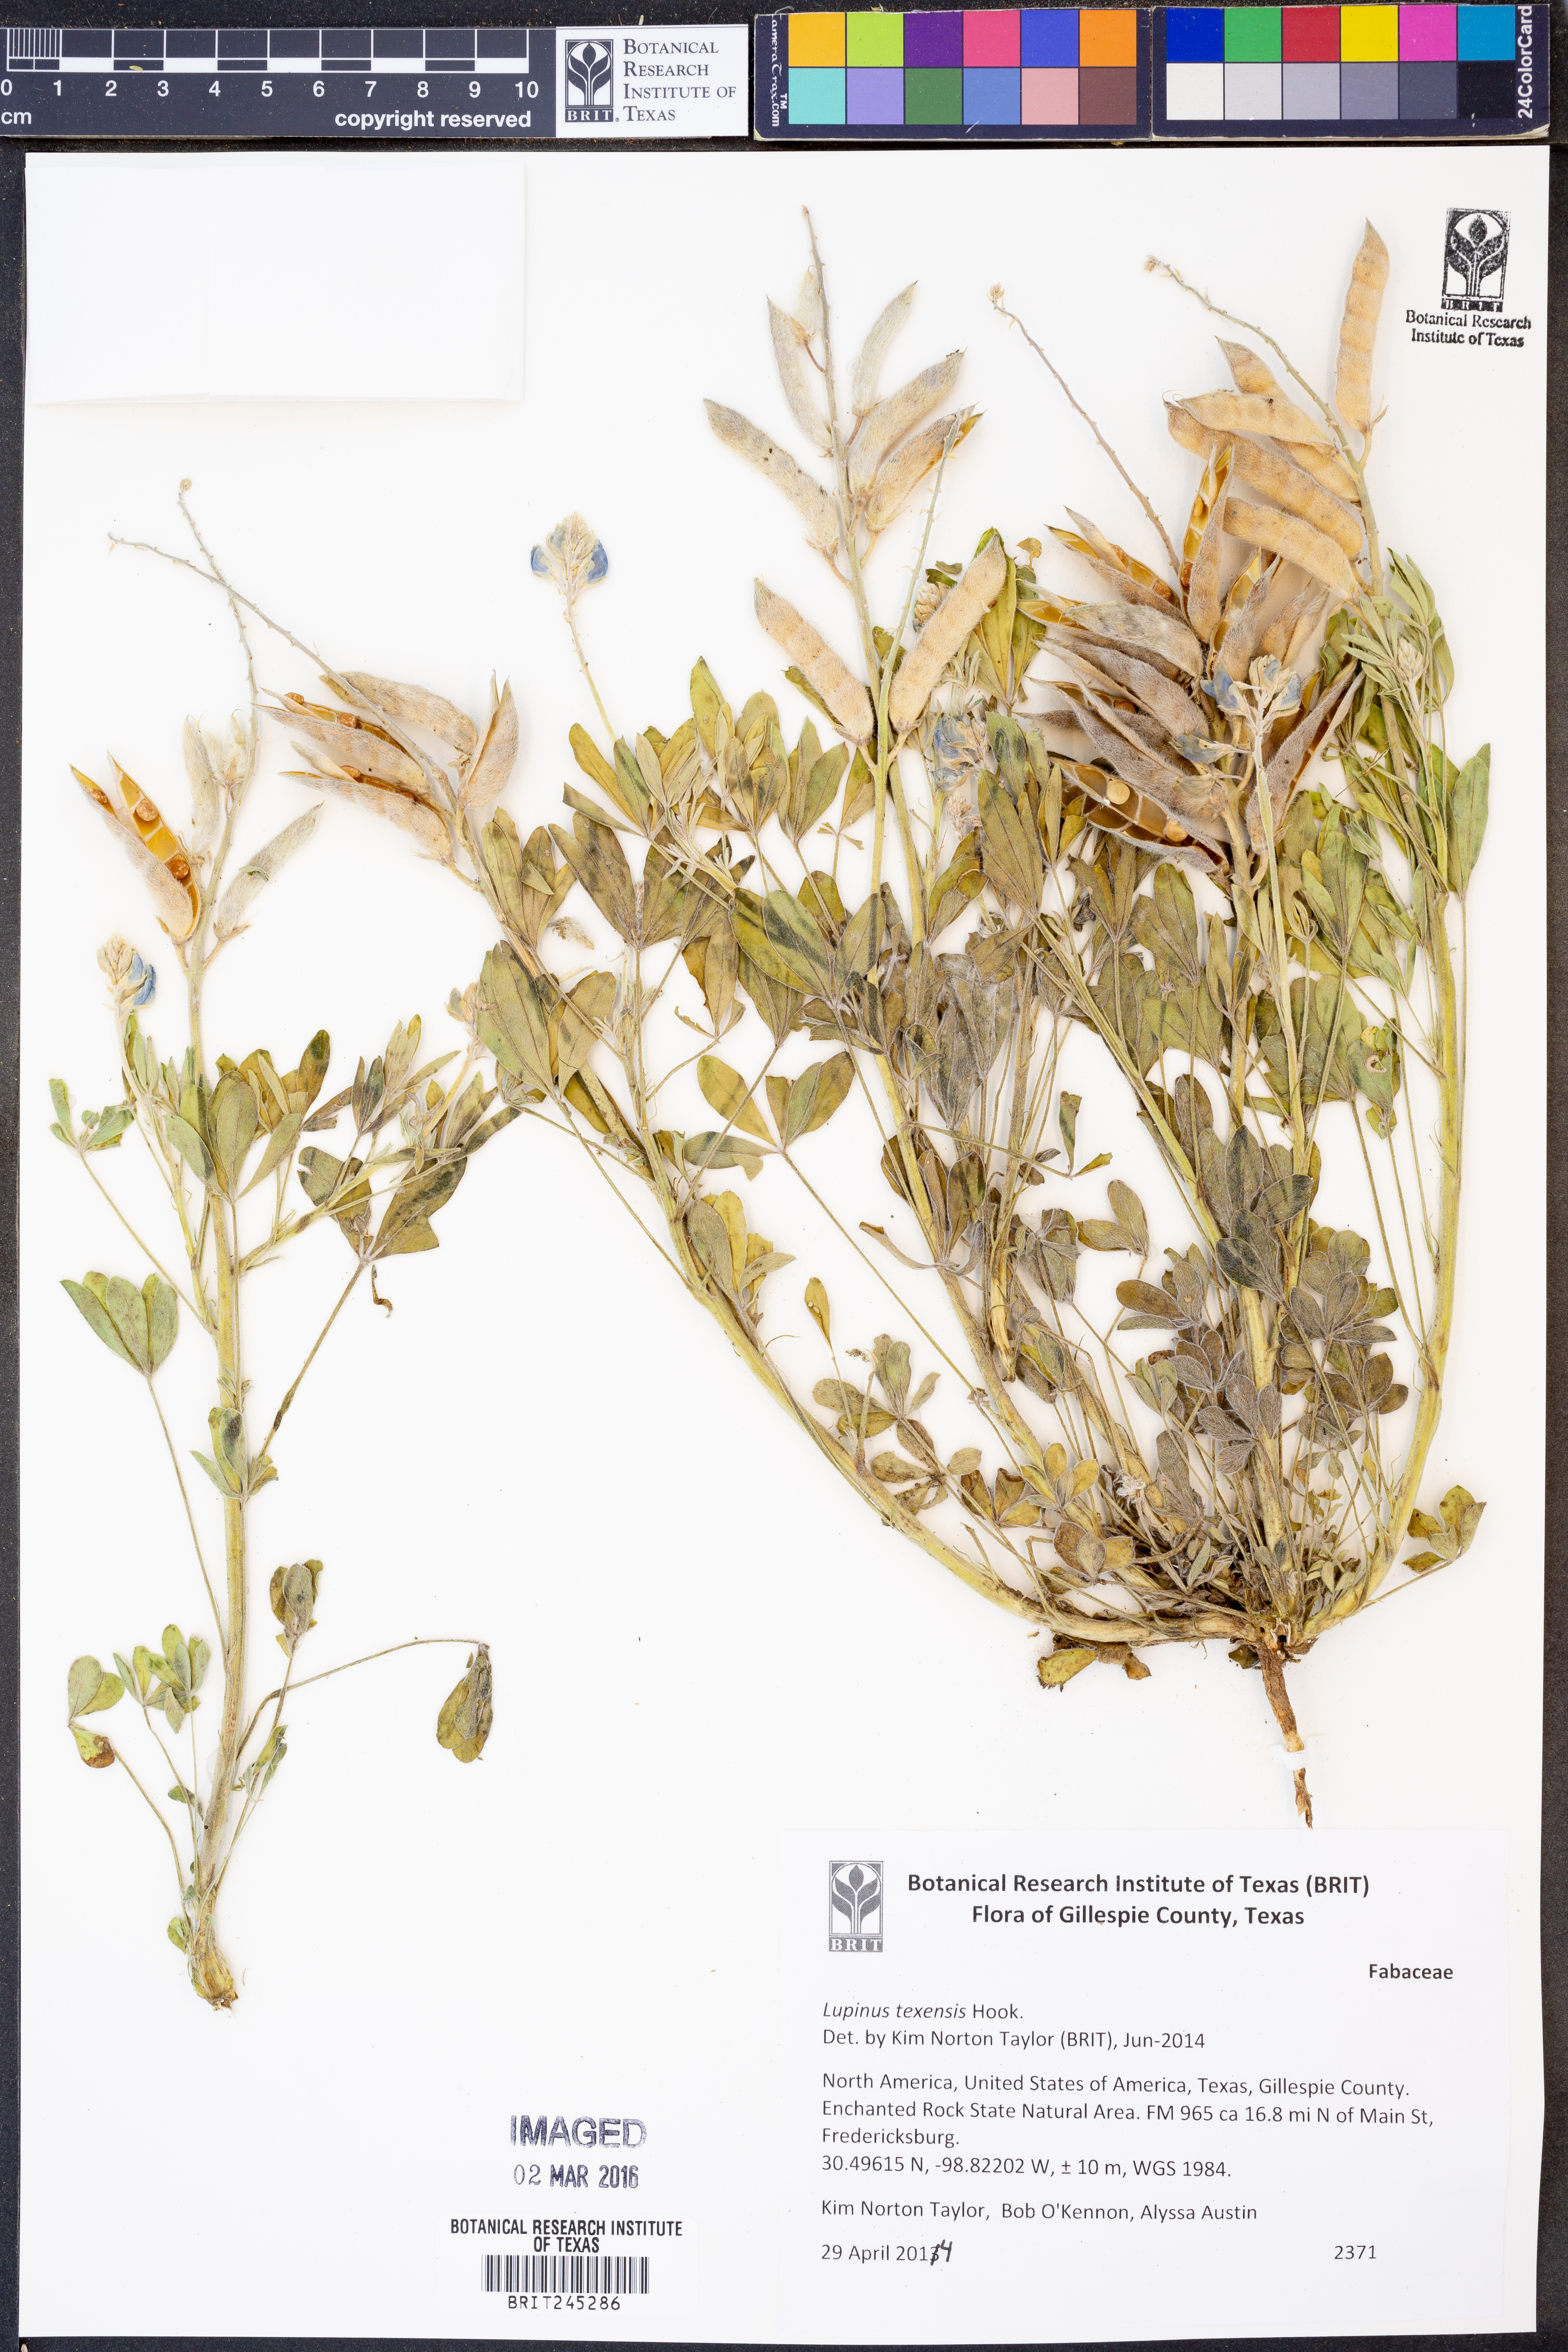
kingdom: Plantae
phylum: Tracheophyta
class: Magnoliopsida
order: Fabales
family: Fabaceae
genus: Lupinus
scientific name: Lupinus texensis
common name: Texas bluebonnet
